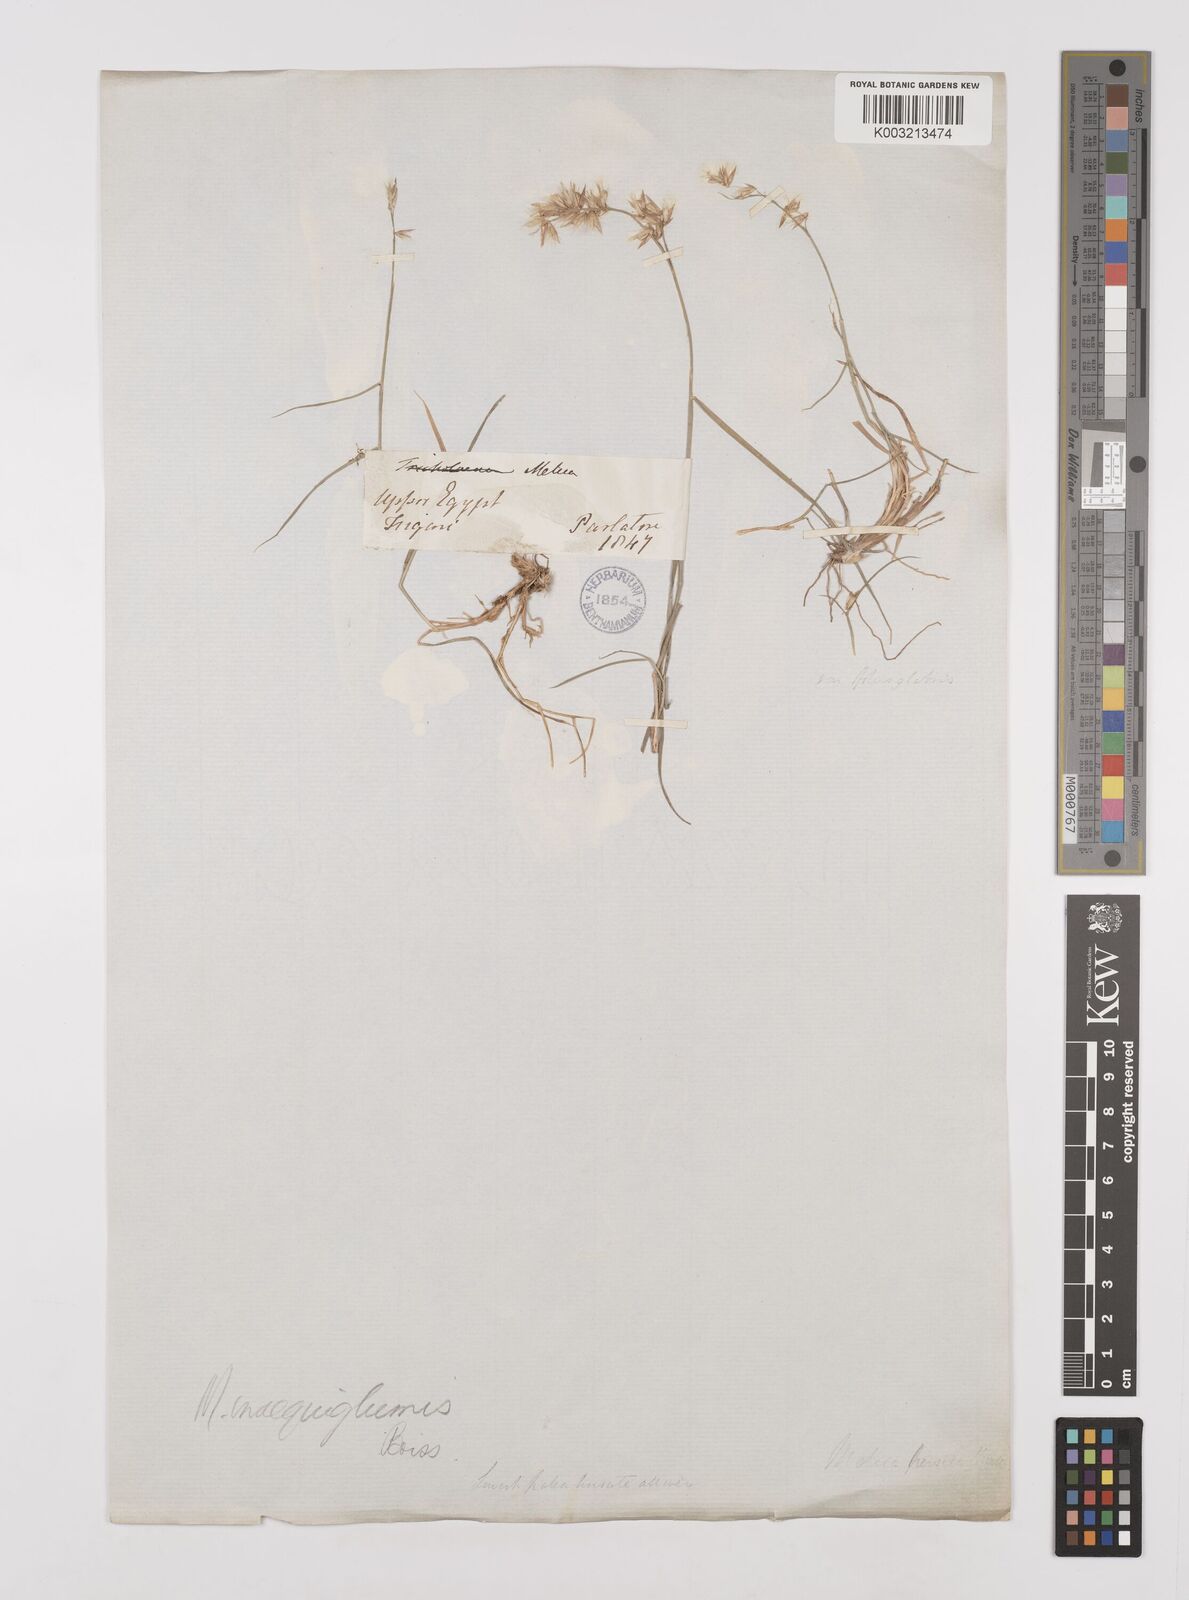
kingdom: Plantae
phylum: Tracheophyta
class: Liliopsida
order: Poales
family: Poaceae
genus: Melica
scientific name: Melica persica
